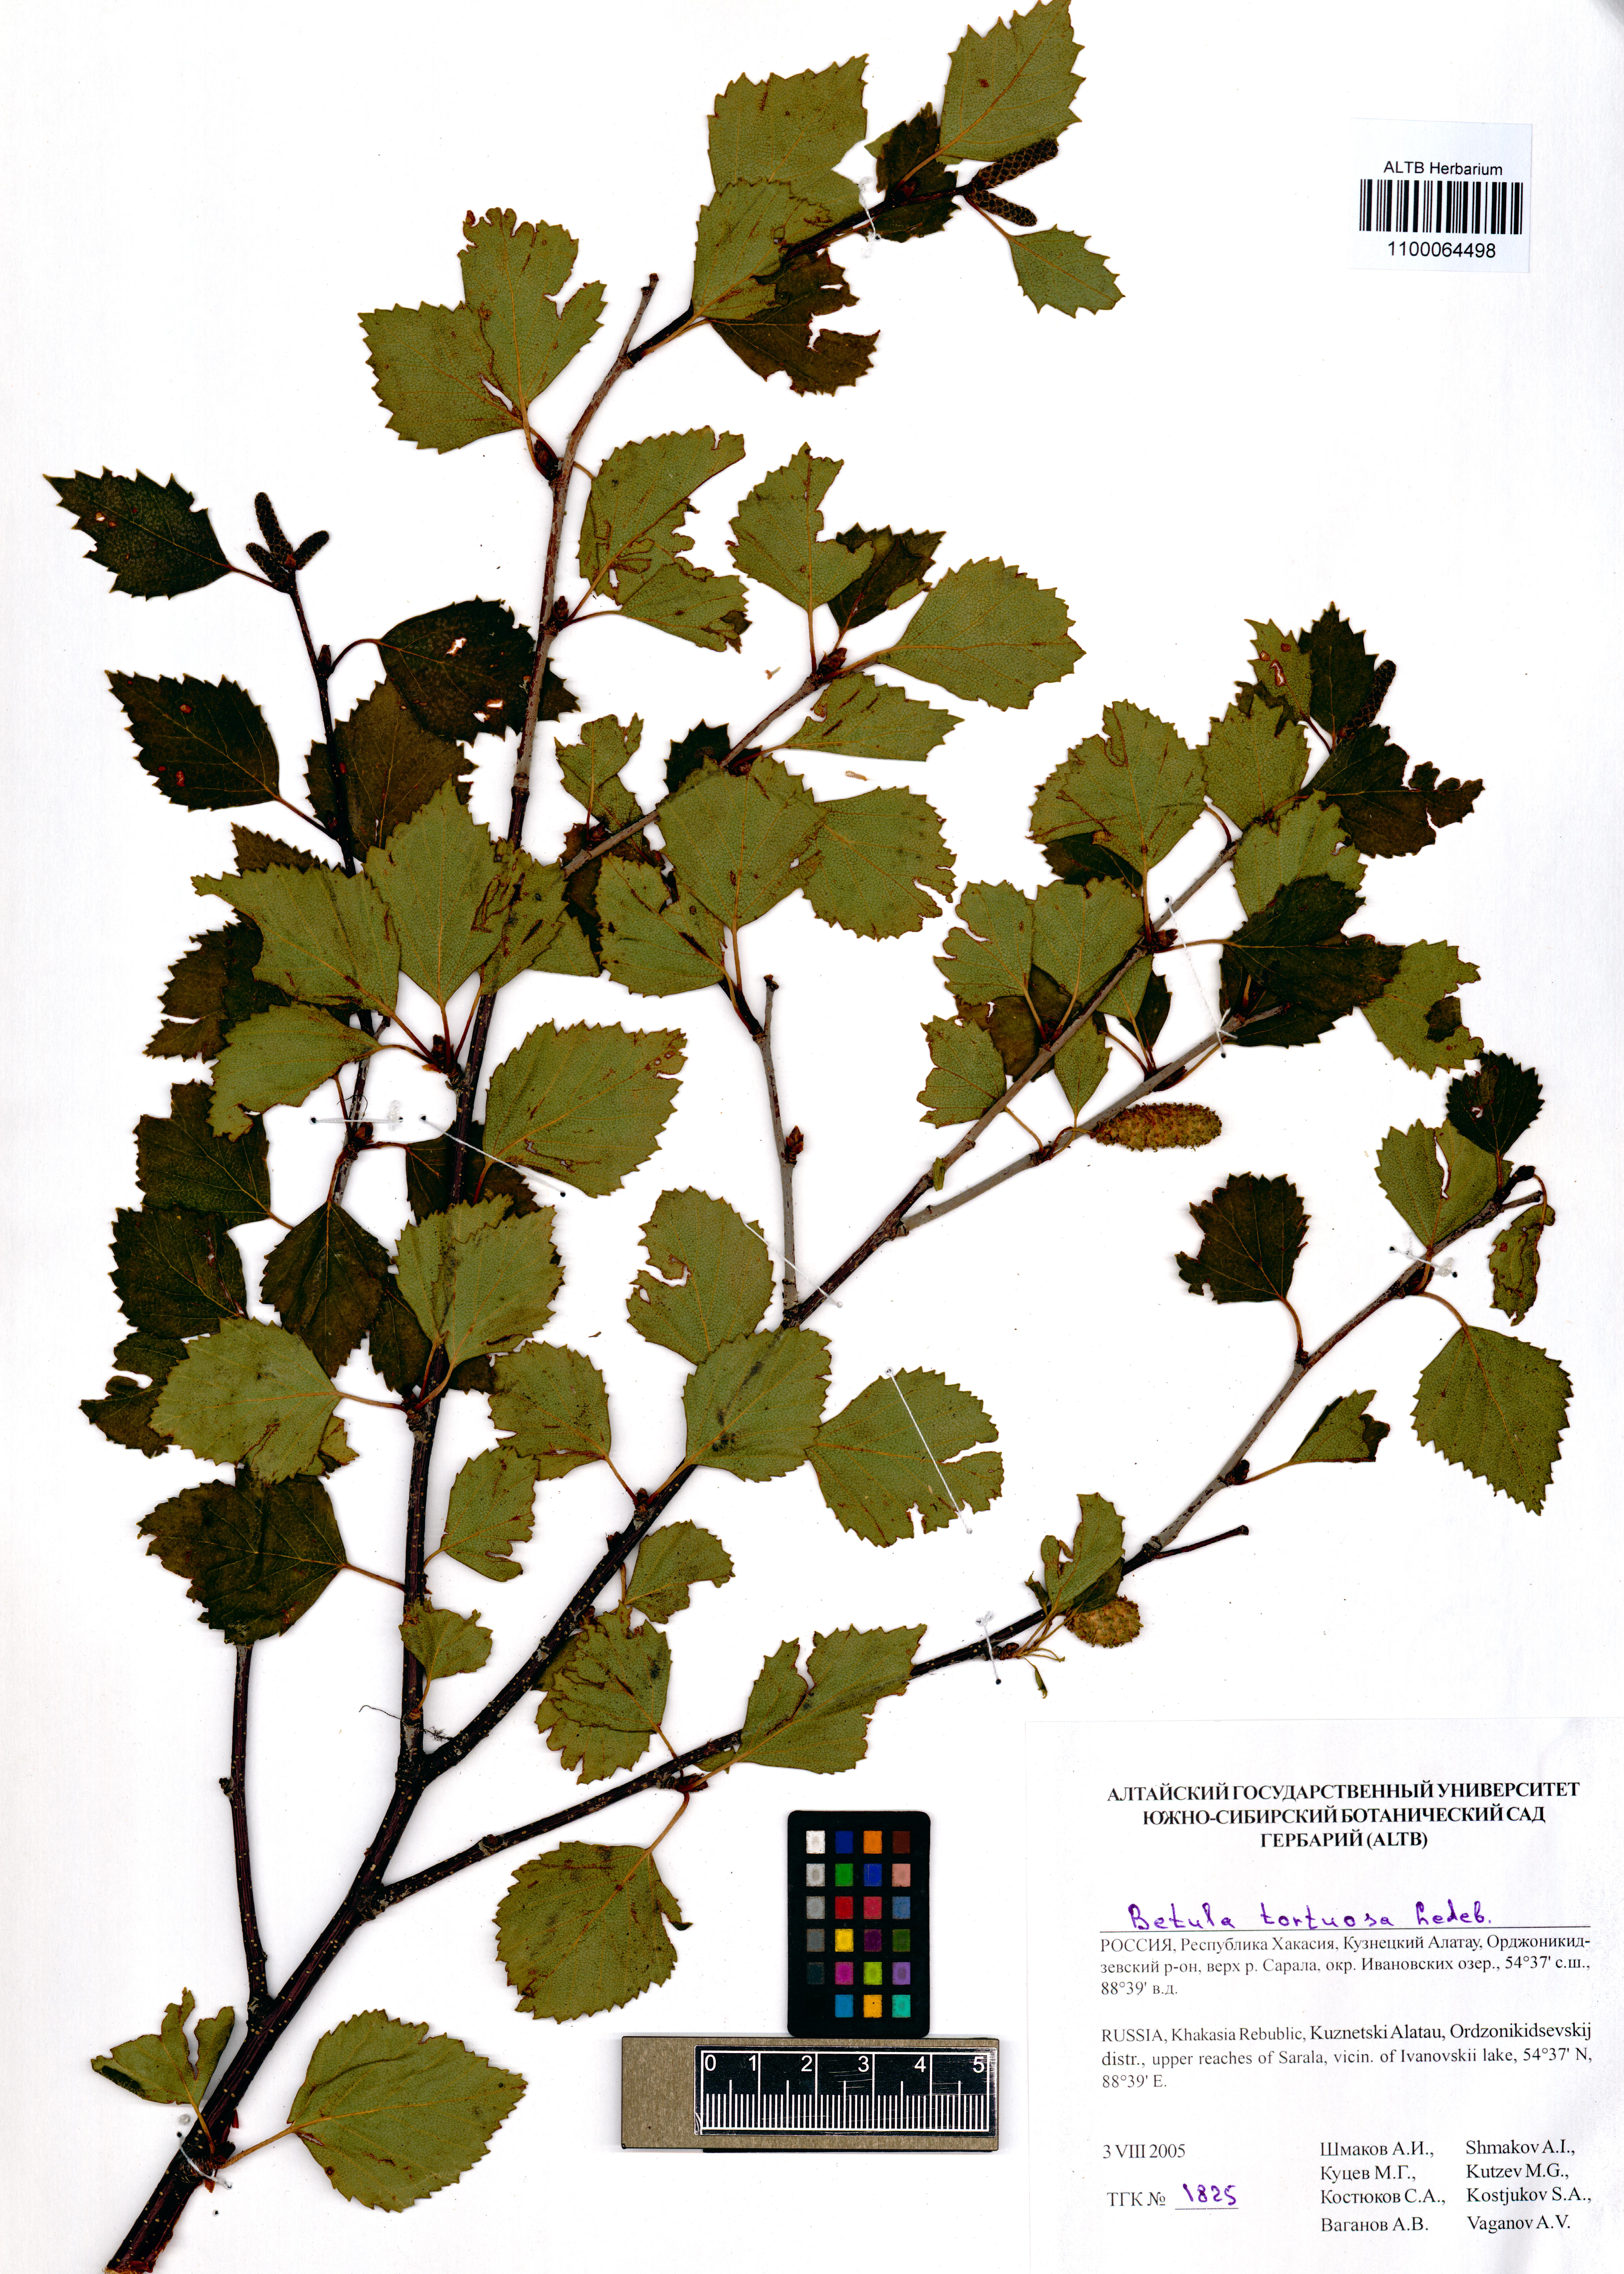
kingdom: Plantae
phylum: Tracheophyta
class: Magnoliopsida
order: Fagales
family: Betulaceae
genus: Betula
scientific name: Betula pubescens
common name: Downy birch
